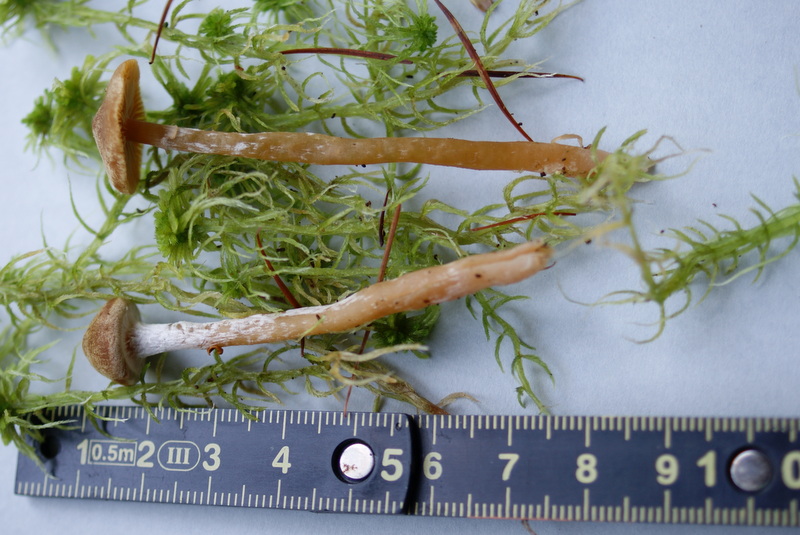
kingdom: Fungi
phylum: Basidiomycota
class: Agaricomycetes
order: Agaricales
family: Hymenogastraceae
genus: Galerina
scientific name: Galerina paludosa
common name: mose-hjelmhat
